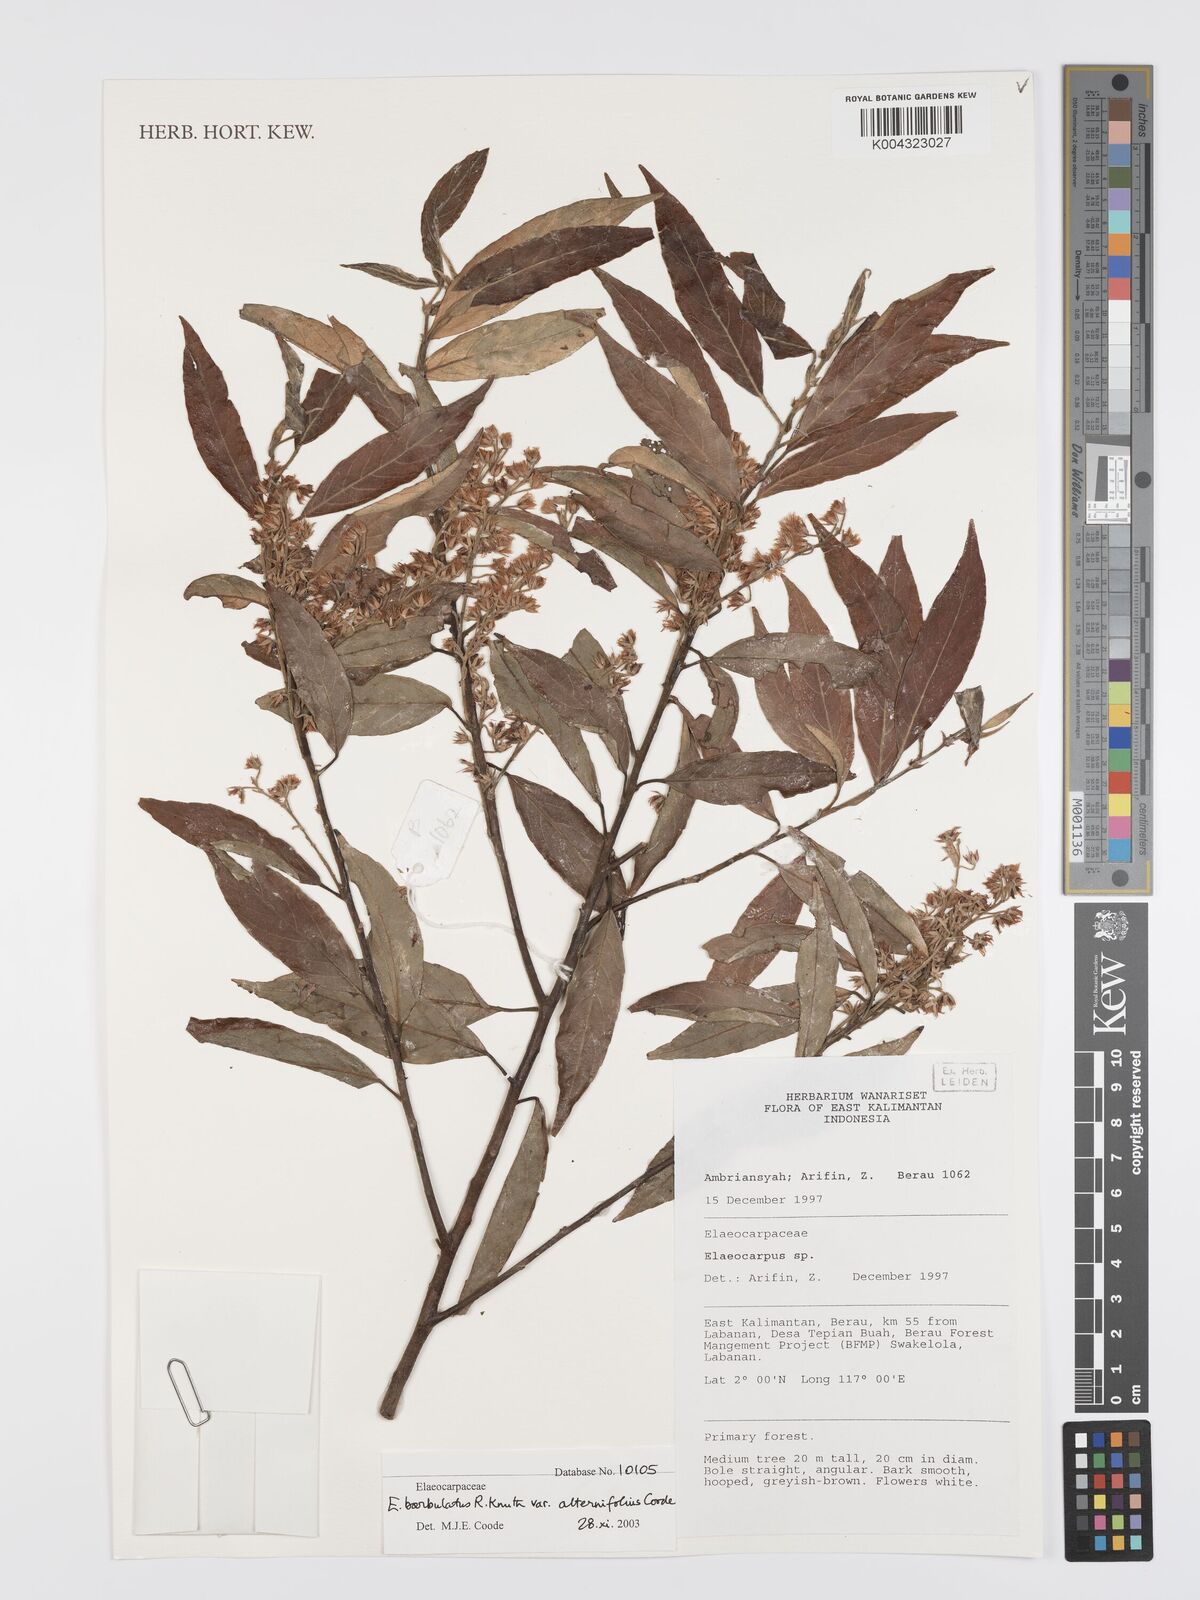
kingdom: Plantae
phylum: Tracheophyta
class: Magnoliopsida
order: Oxalidales
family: Elaeocarpaceae
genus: Elaeocarpus
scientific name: Elaeocarpus barbulatus
